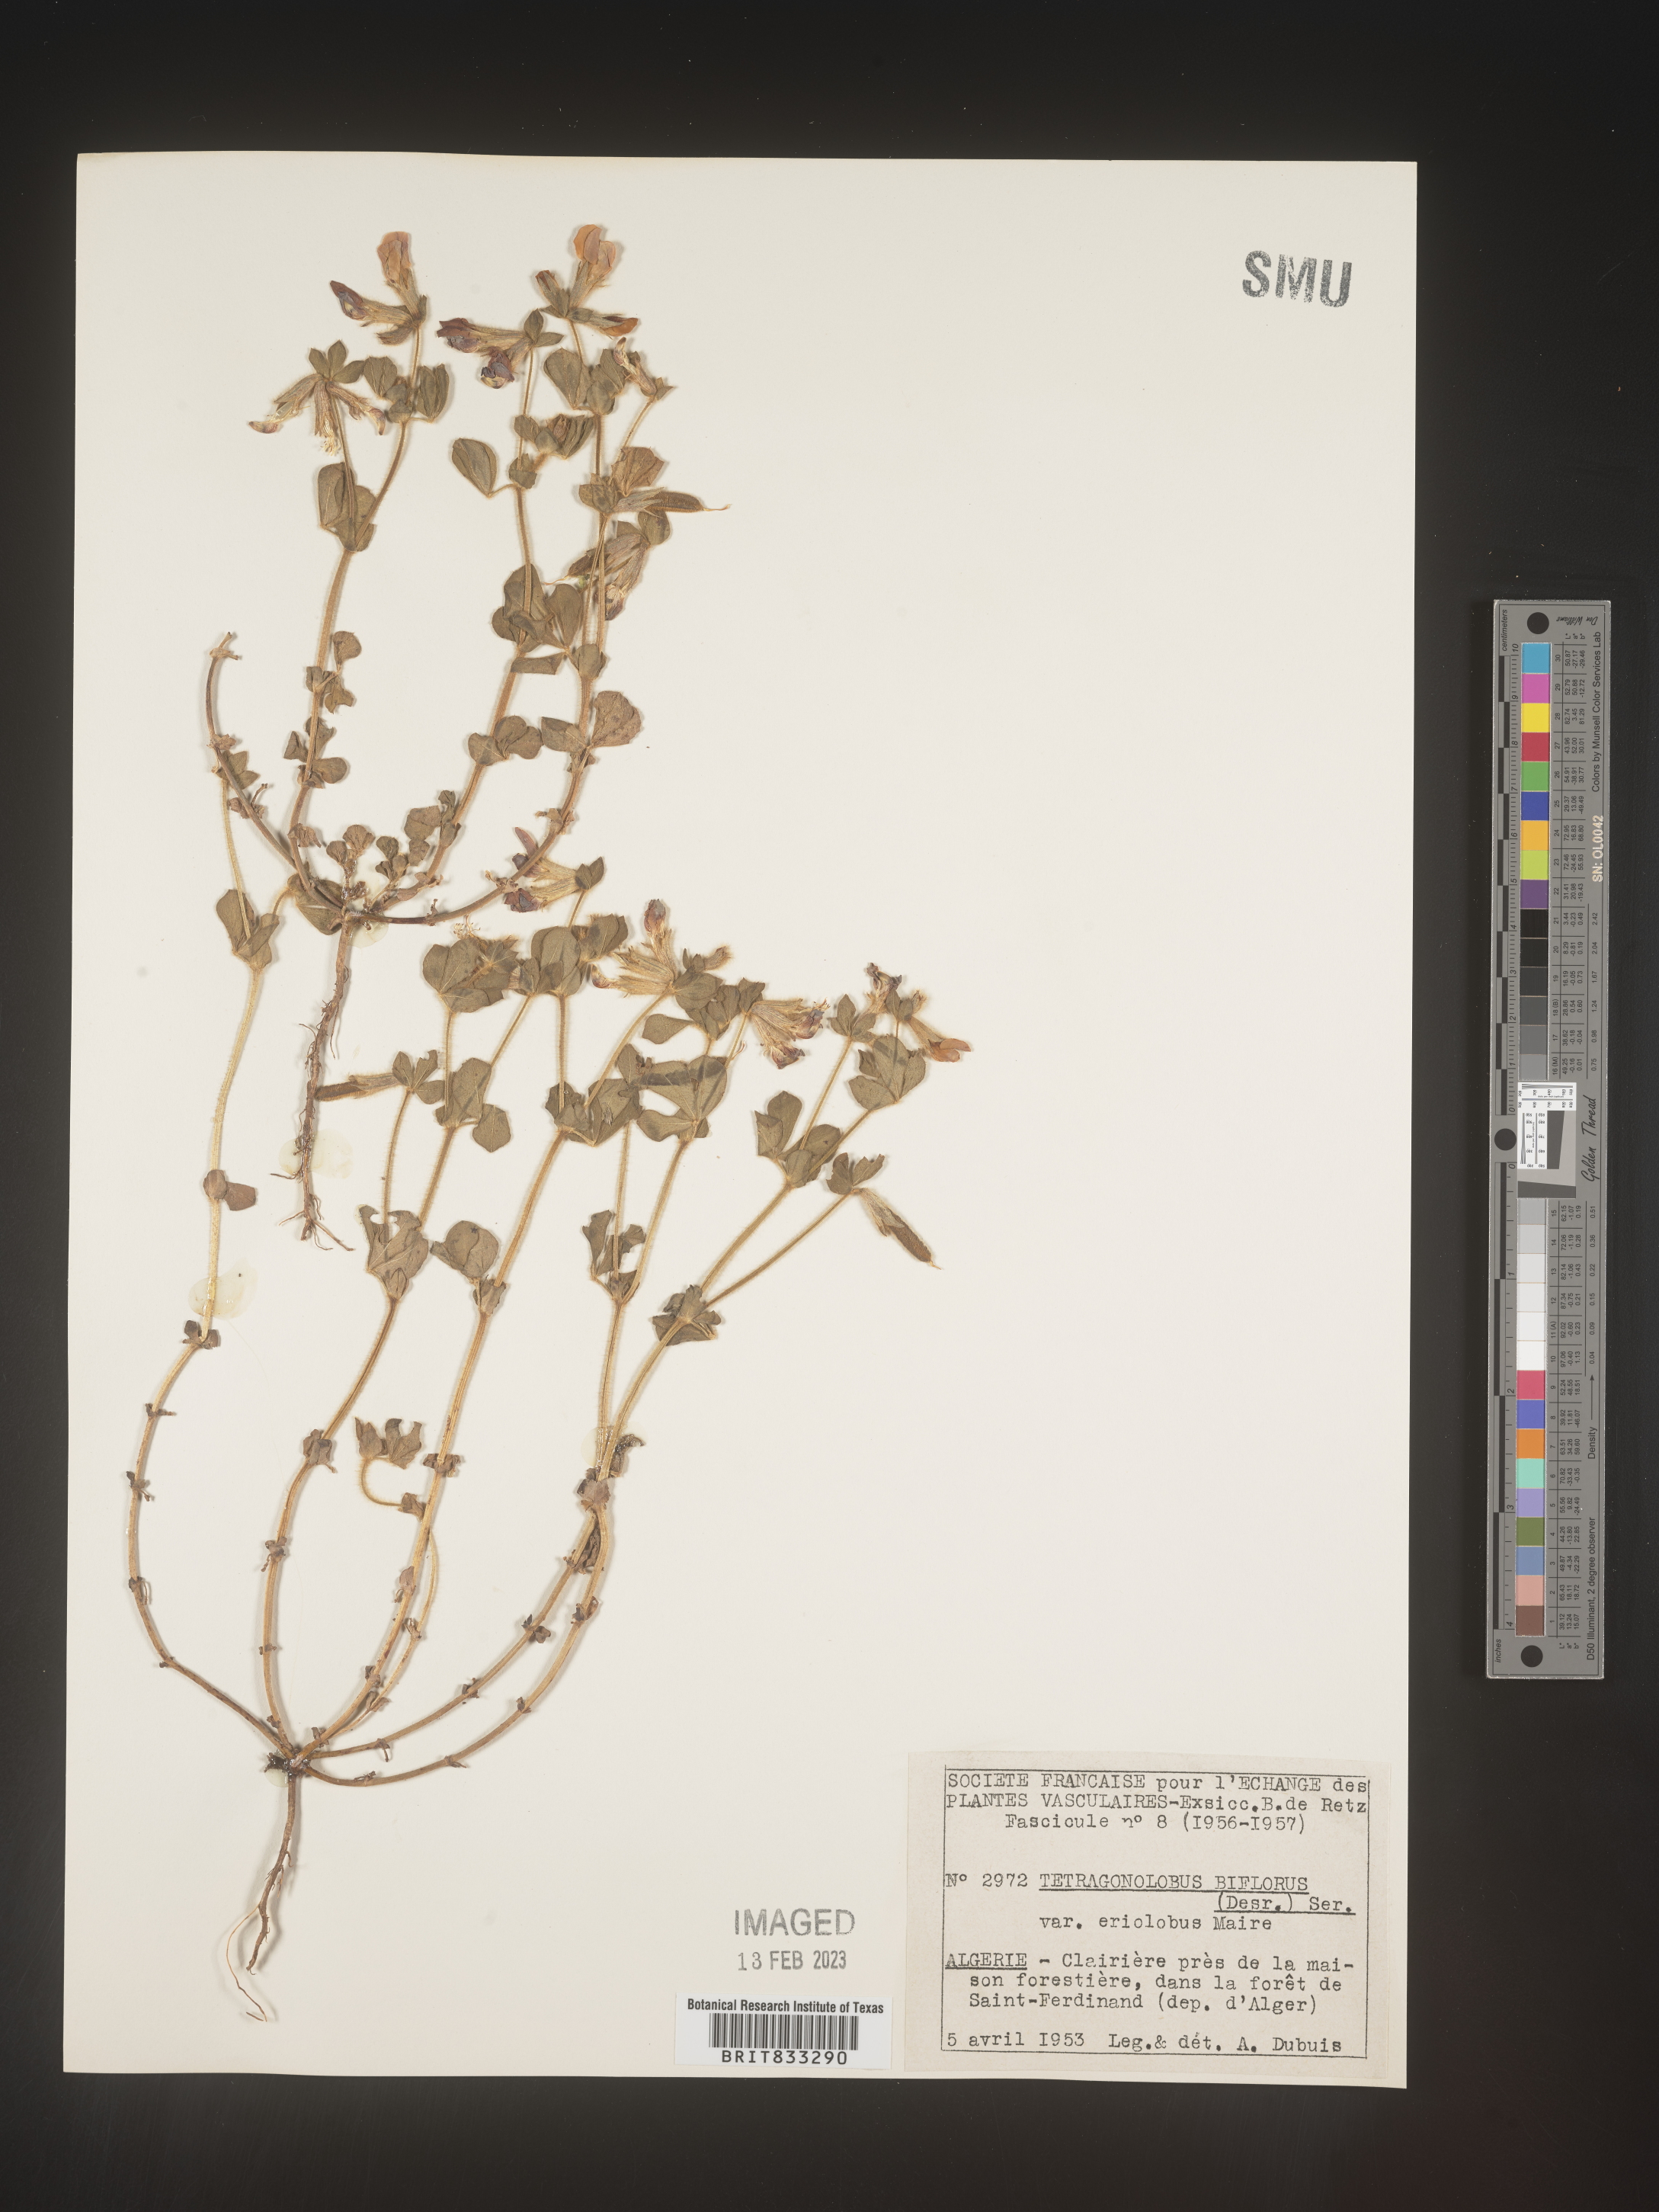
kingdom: Plantae
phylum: Tracheophyta
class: Magnoliopsida
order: Fabales
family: Fabaceae
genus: Lotus
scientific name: Lotus
